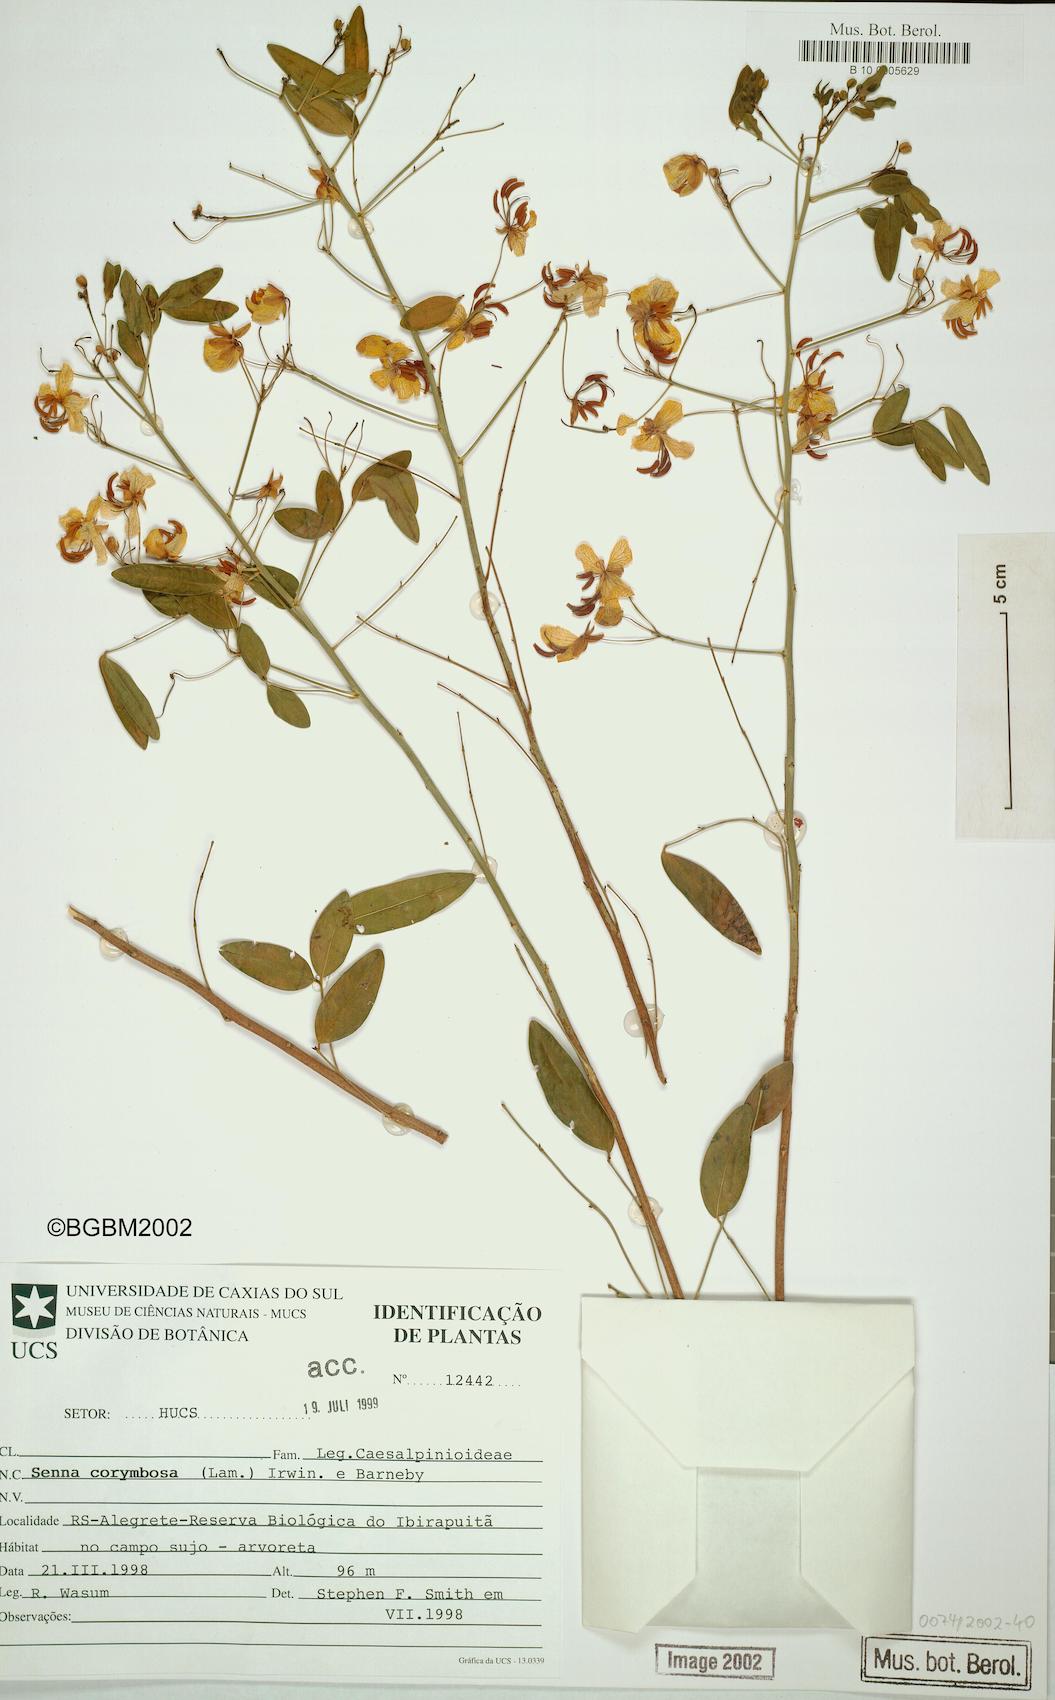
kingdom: Plantae
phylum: Tracheophyta
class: Magnoliopsida
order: Fabales
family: Fabaceae
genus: Senna
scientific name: Senna corymbosa
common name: Argentine senna
